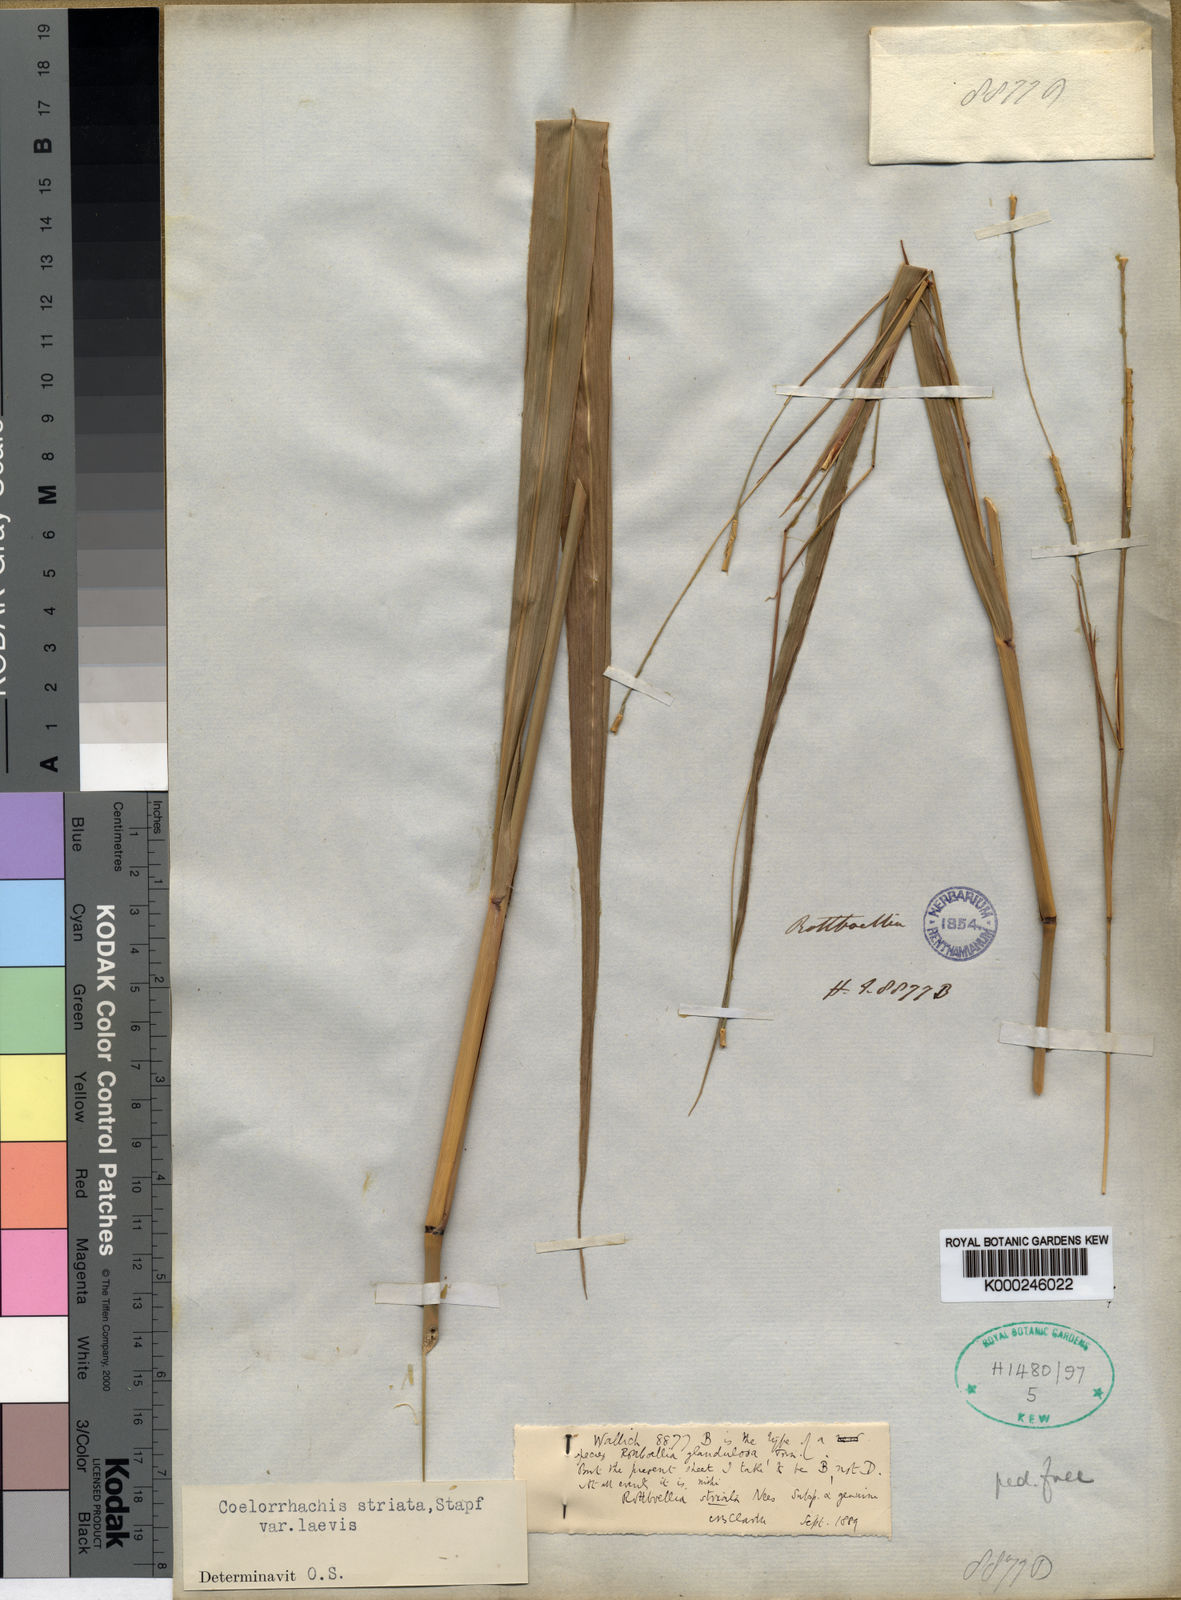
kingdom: Plantae
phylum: Tracheophyta
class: Liliopsida
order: Poales
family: Poaceae
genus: Rottboellia
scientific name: Rottboellia striata
